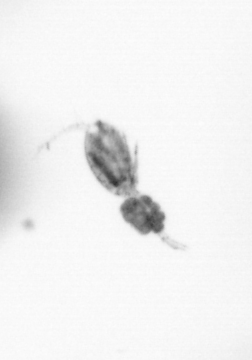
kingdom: Animalia
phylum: Arthropoda
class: Copepoda
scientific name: Copepoda
